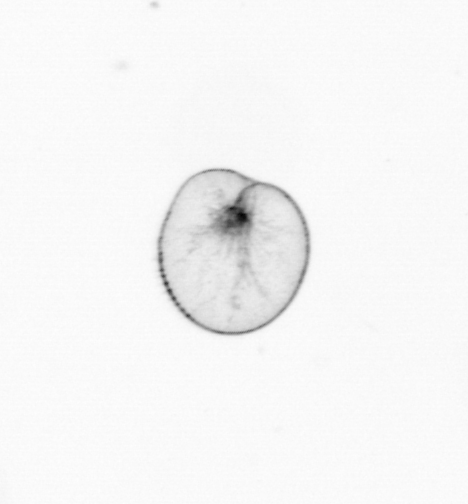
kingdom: Chromista
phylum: Myzozoa
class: Dinophyceae
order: Noctilucales
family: Noctilucaceae
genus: Noctiluca
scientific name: Noctiluca scintillans
